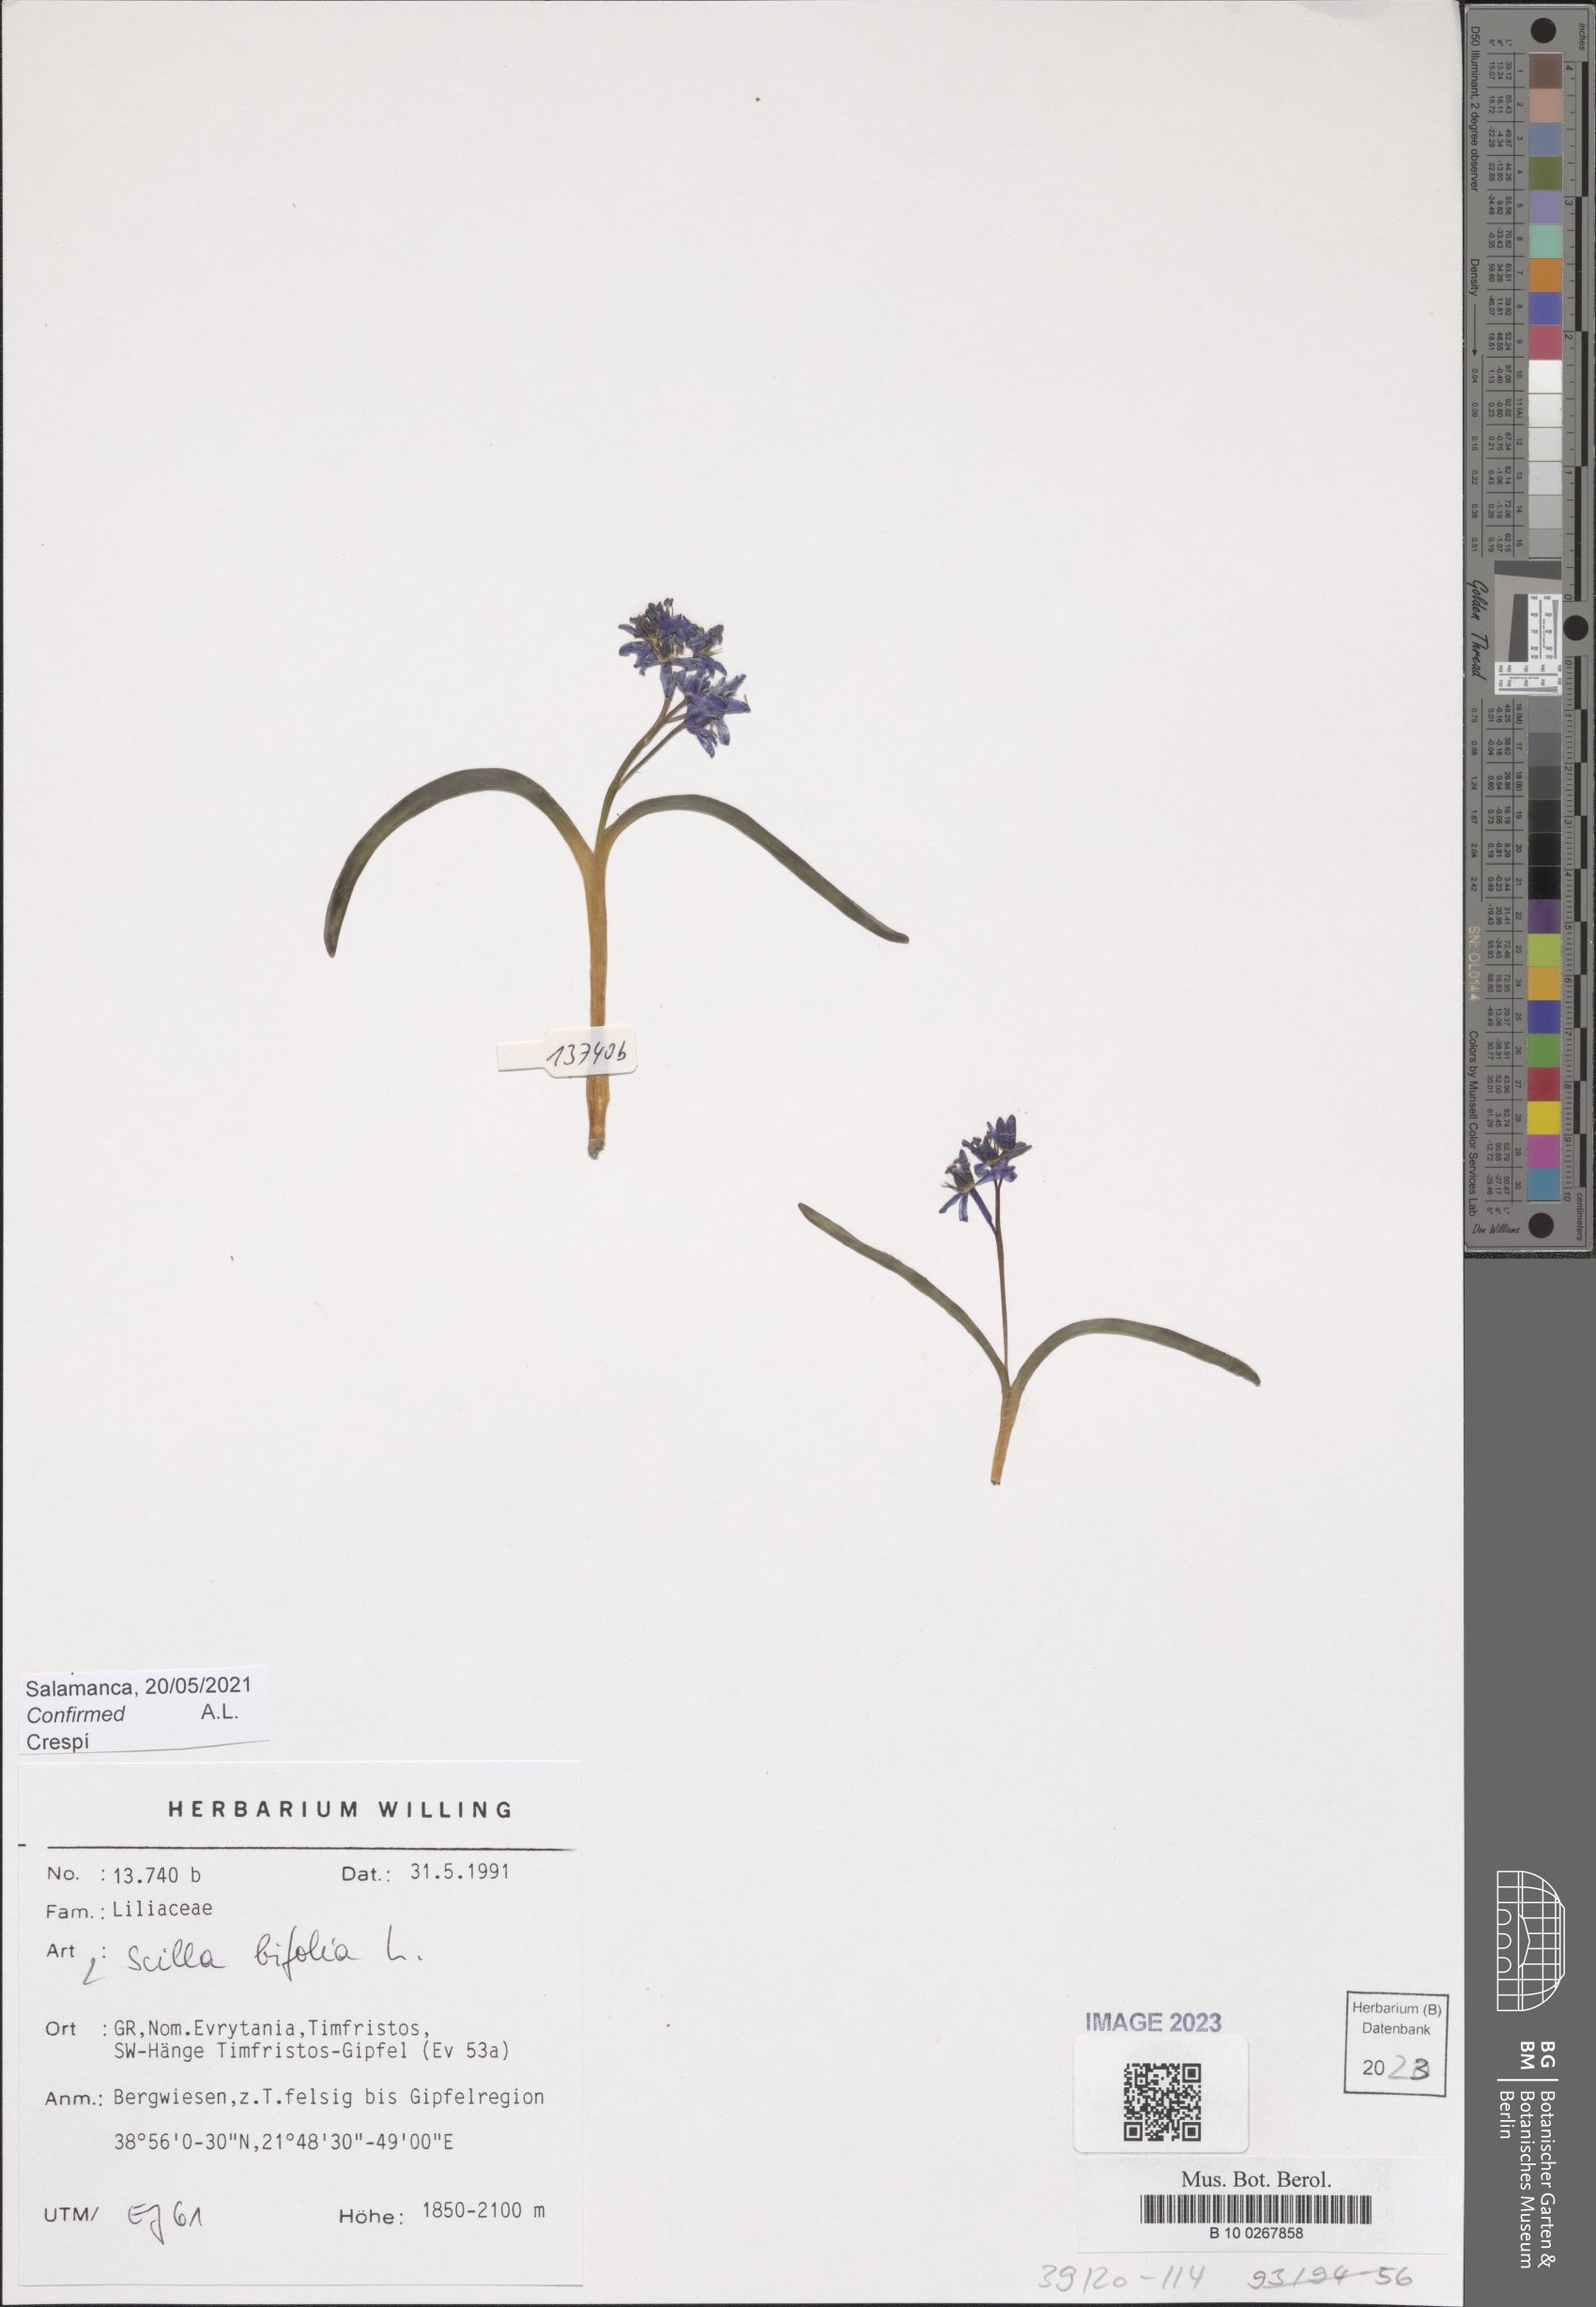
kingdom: Plantae
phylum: Tracheophyta
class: Liliopsida
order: Asparagales
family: Asparagaceae
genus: Scilla
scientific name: Scilla bifolia
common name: Alpine squill
